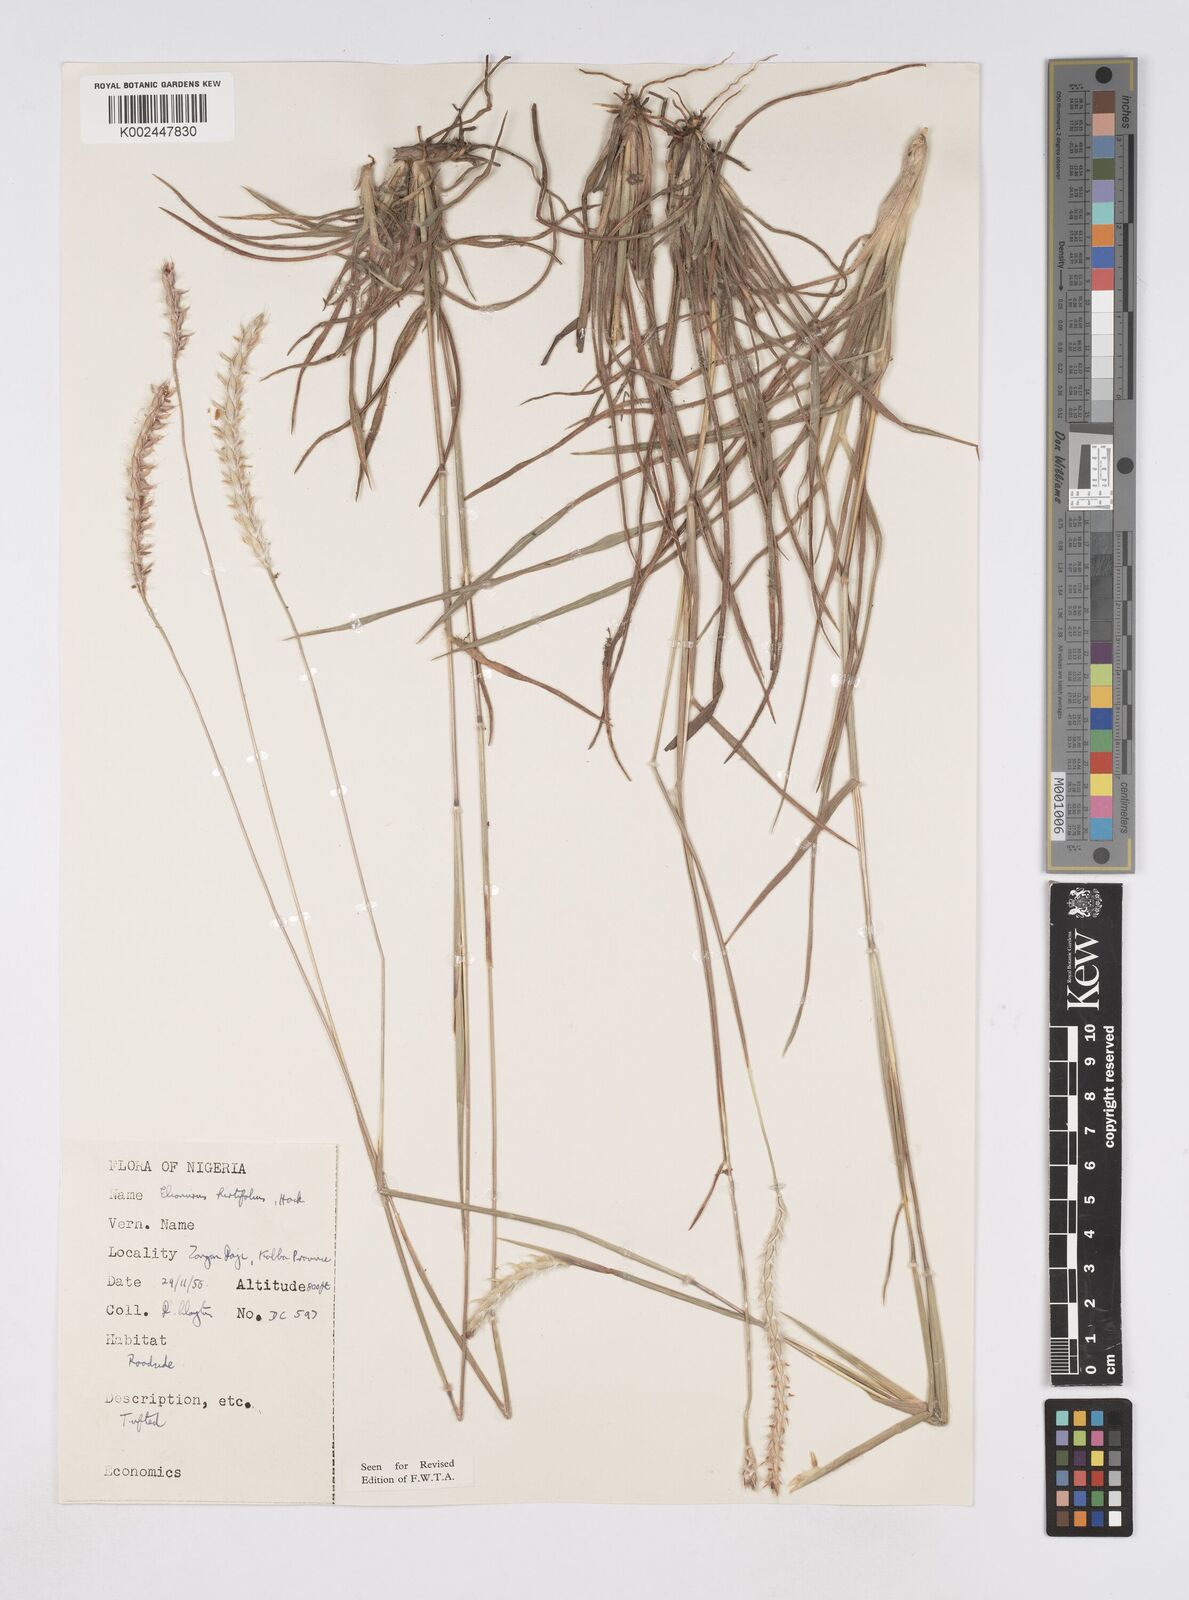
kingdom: Plantae
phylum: Tracheophyta
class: Liliopsida
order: Poales
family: Poaceae
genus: Elionurus
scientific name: Elionurus hirtifolius
